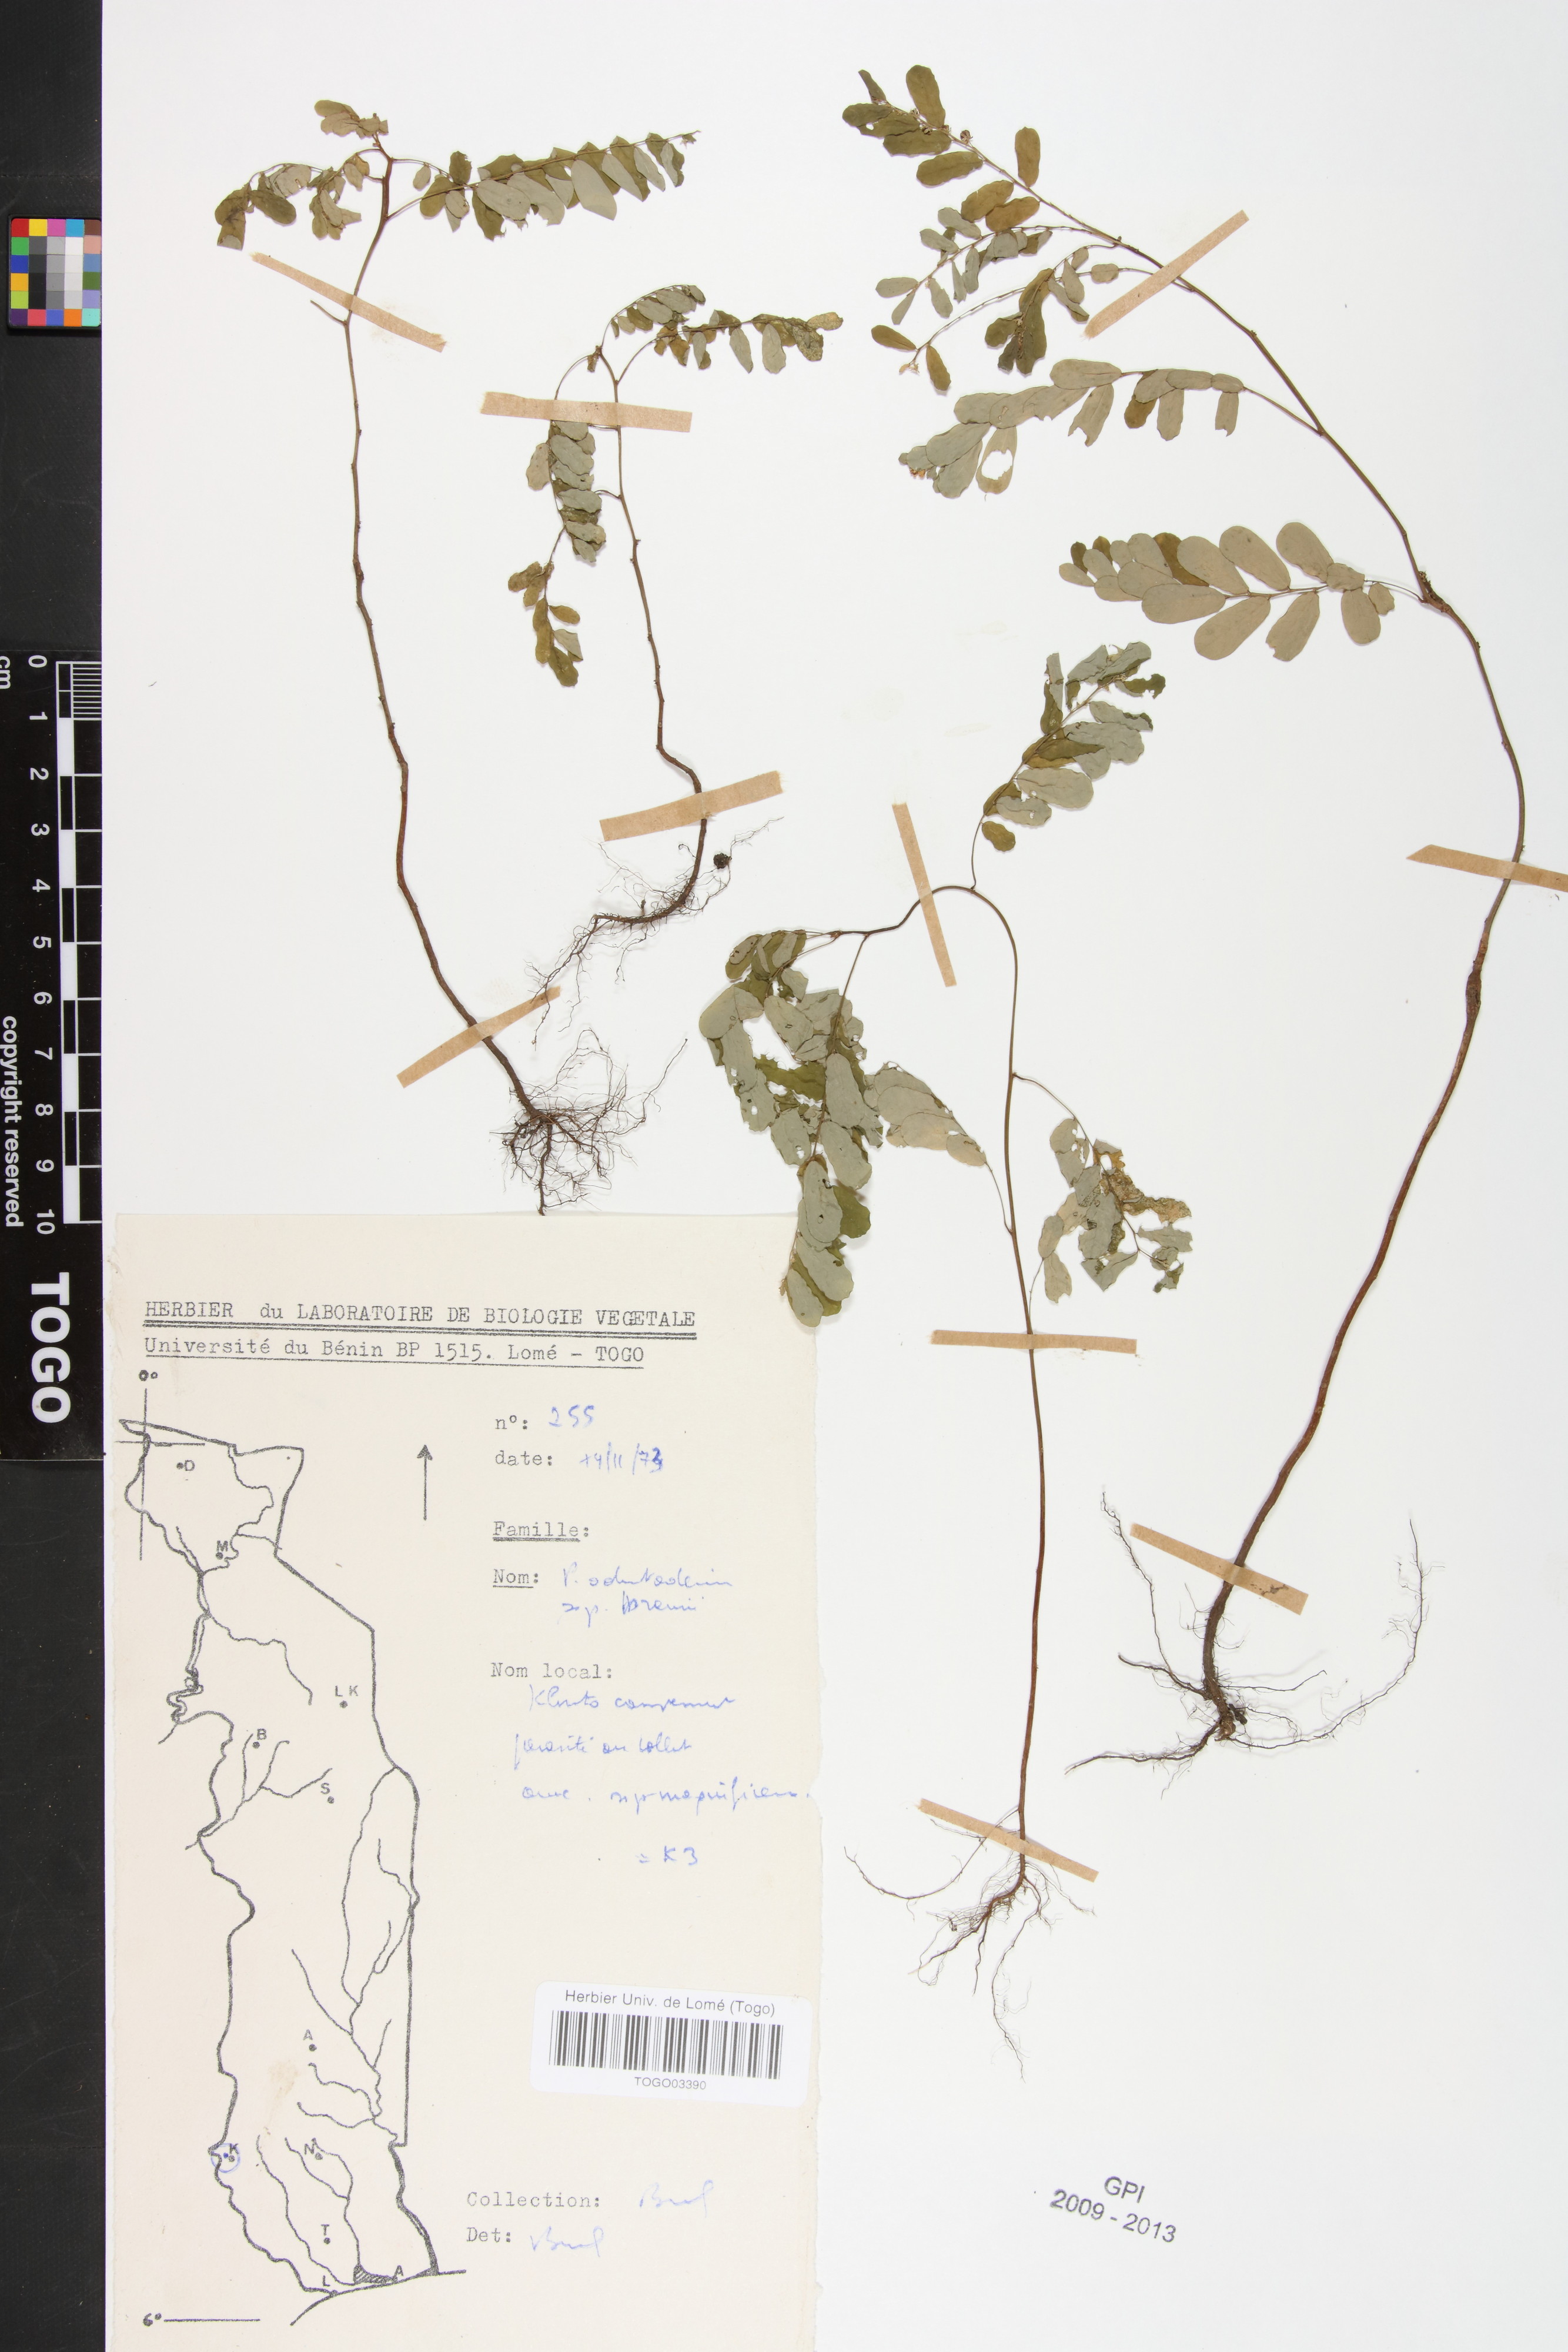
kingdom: Plantae
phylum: Tracheophyta
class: Magnoliopsida
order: Malpighiales
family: Phyllanthaceae
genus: Phyllanthus
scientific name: Phyllanthus odontadenius
